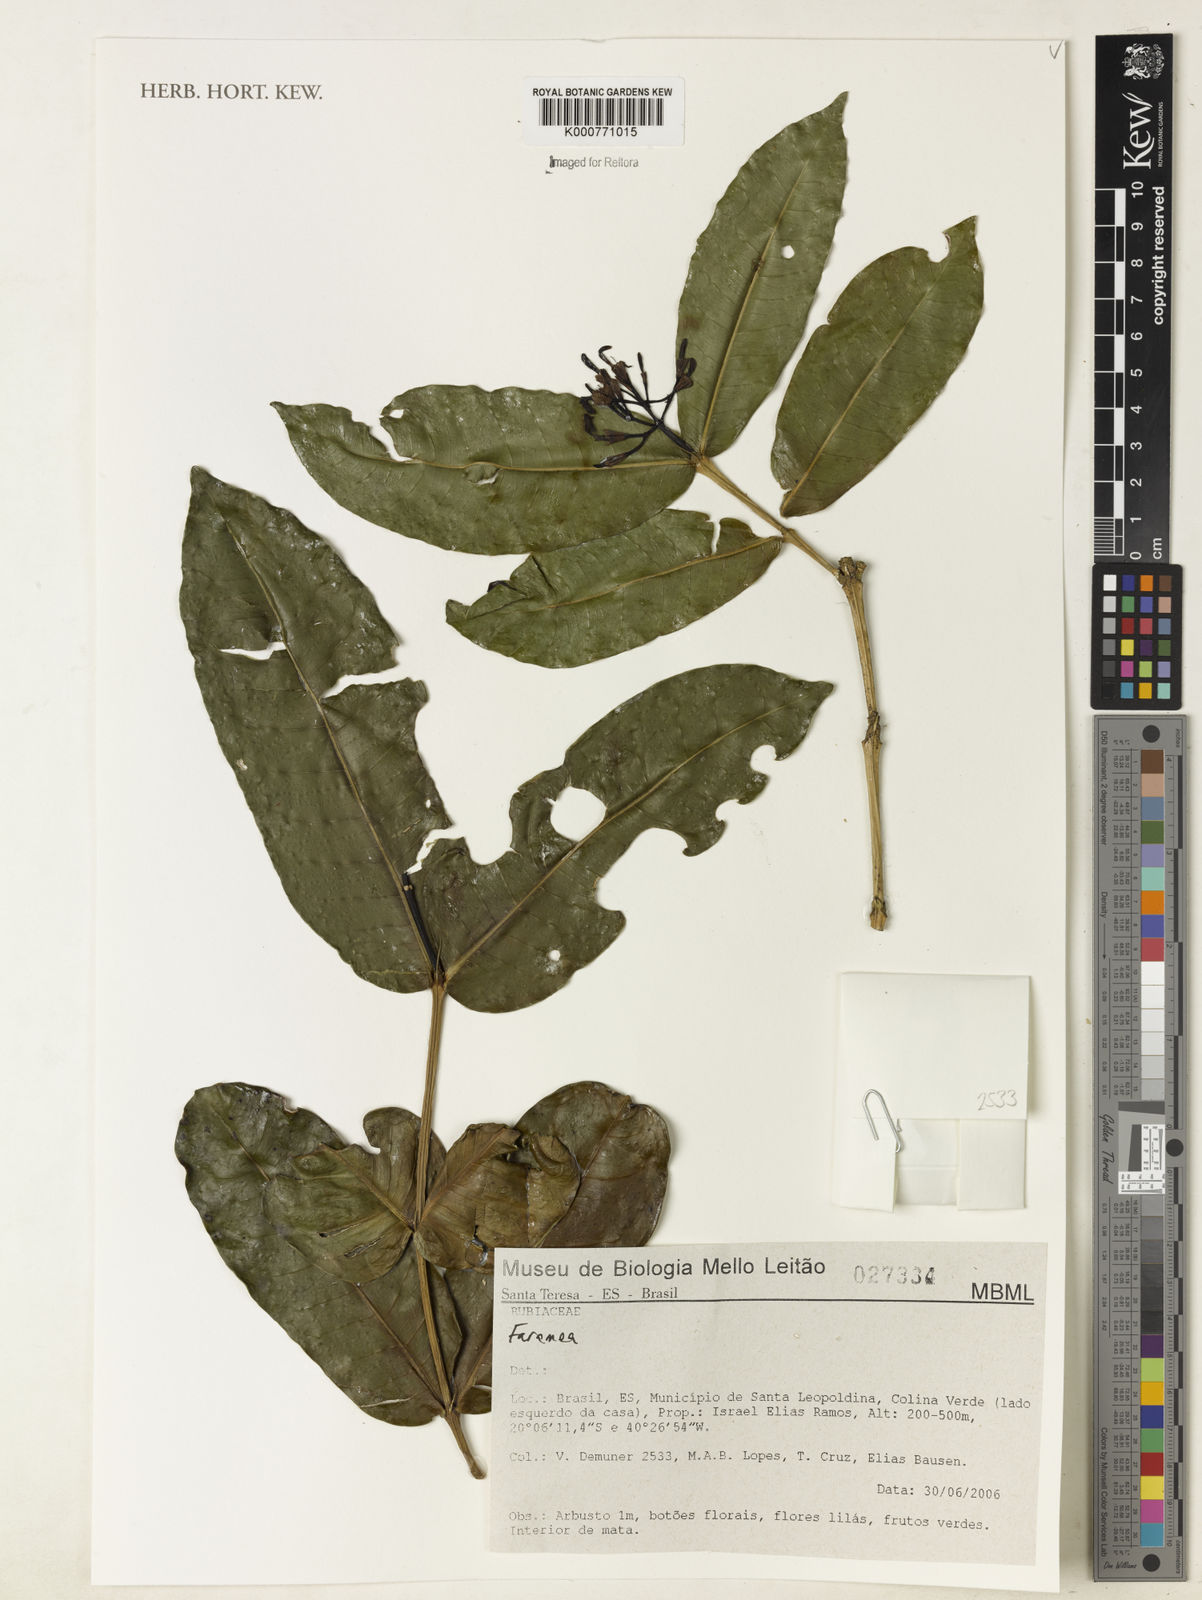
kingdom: Plantae
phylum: Tracheophyta
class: Magnoliopsida
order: Gentianales
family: Rubiaceae
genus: Faramea
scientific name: Faramea
